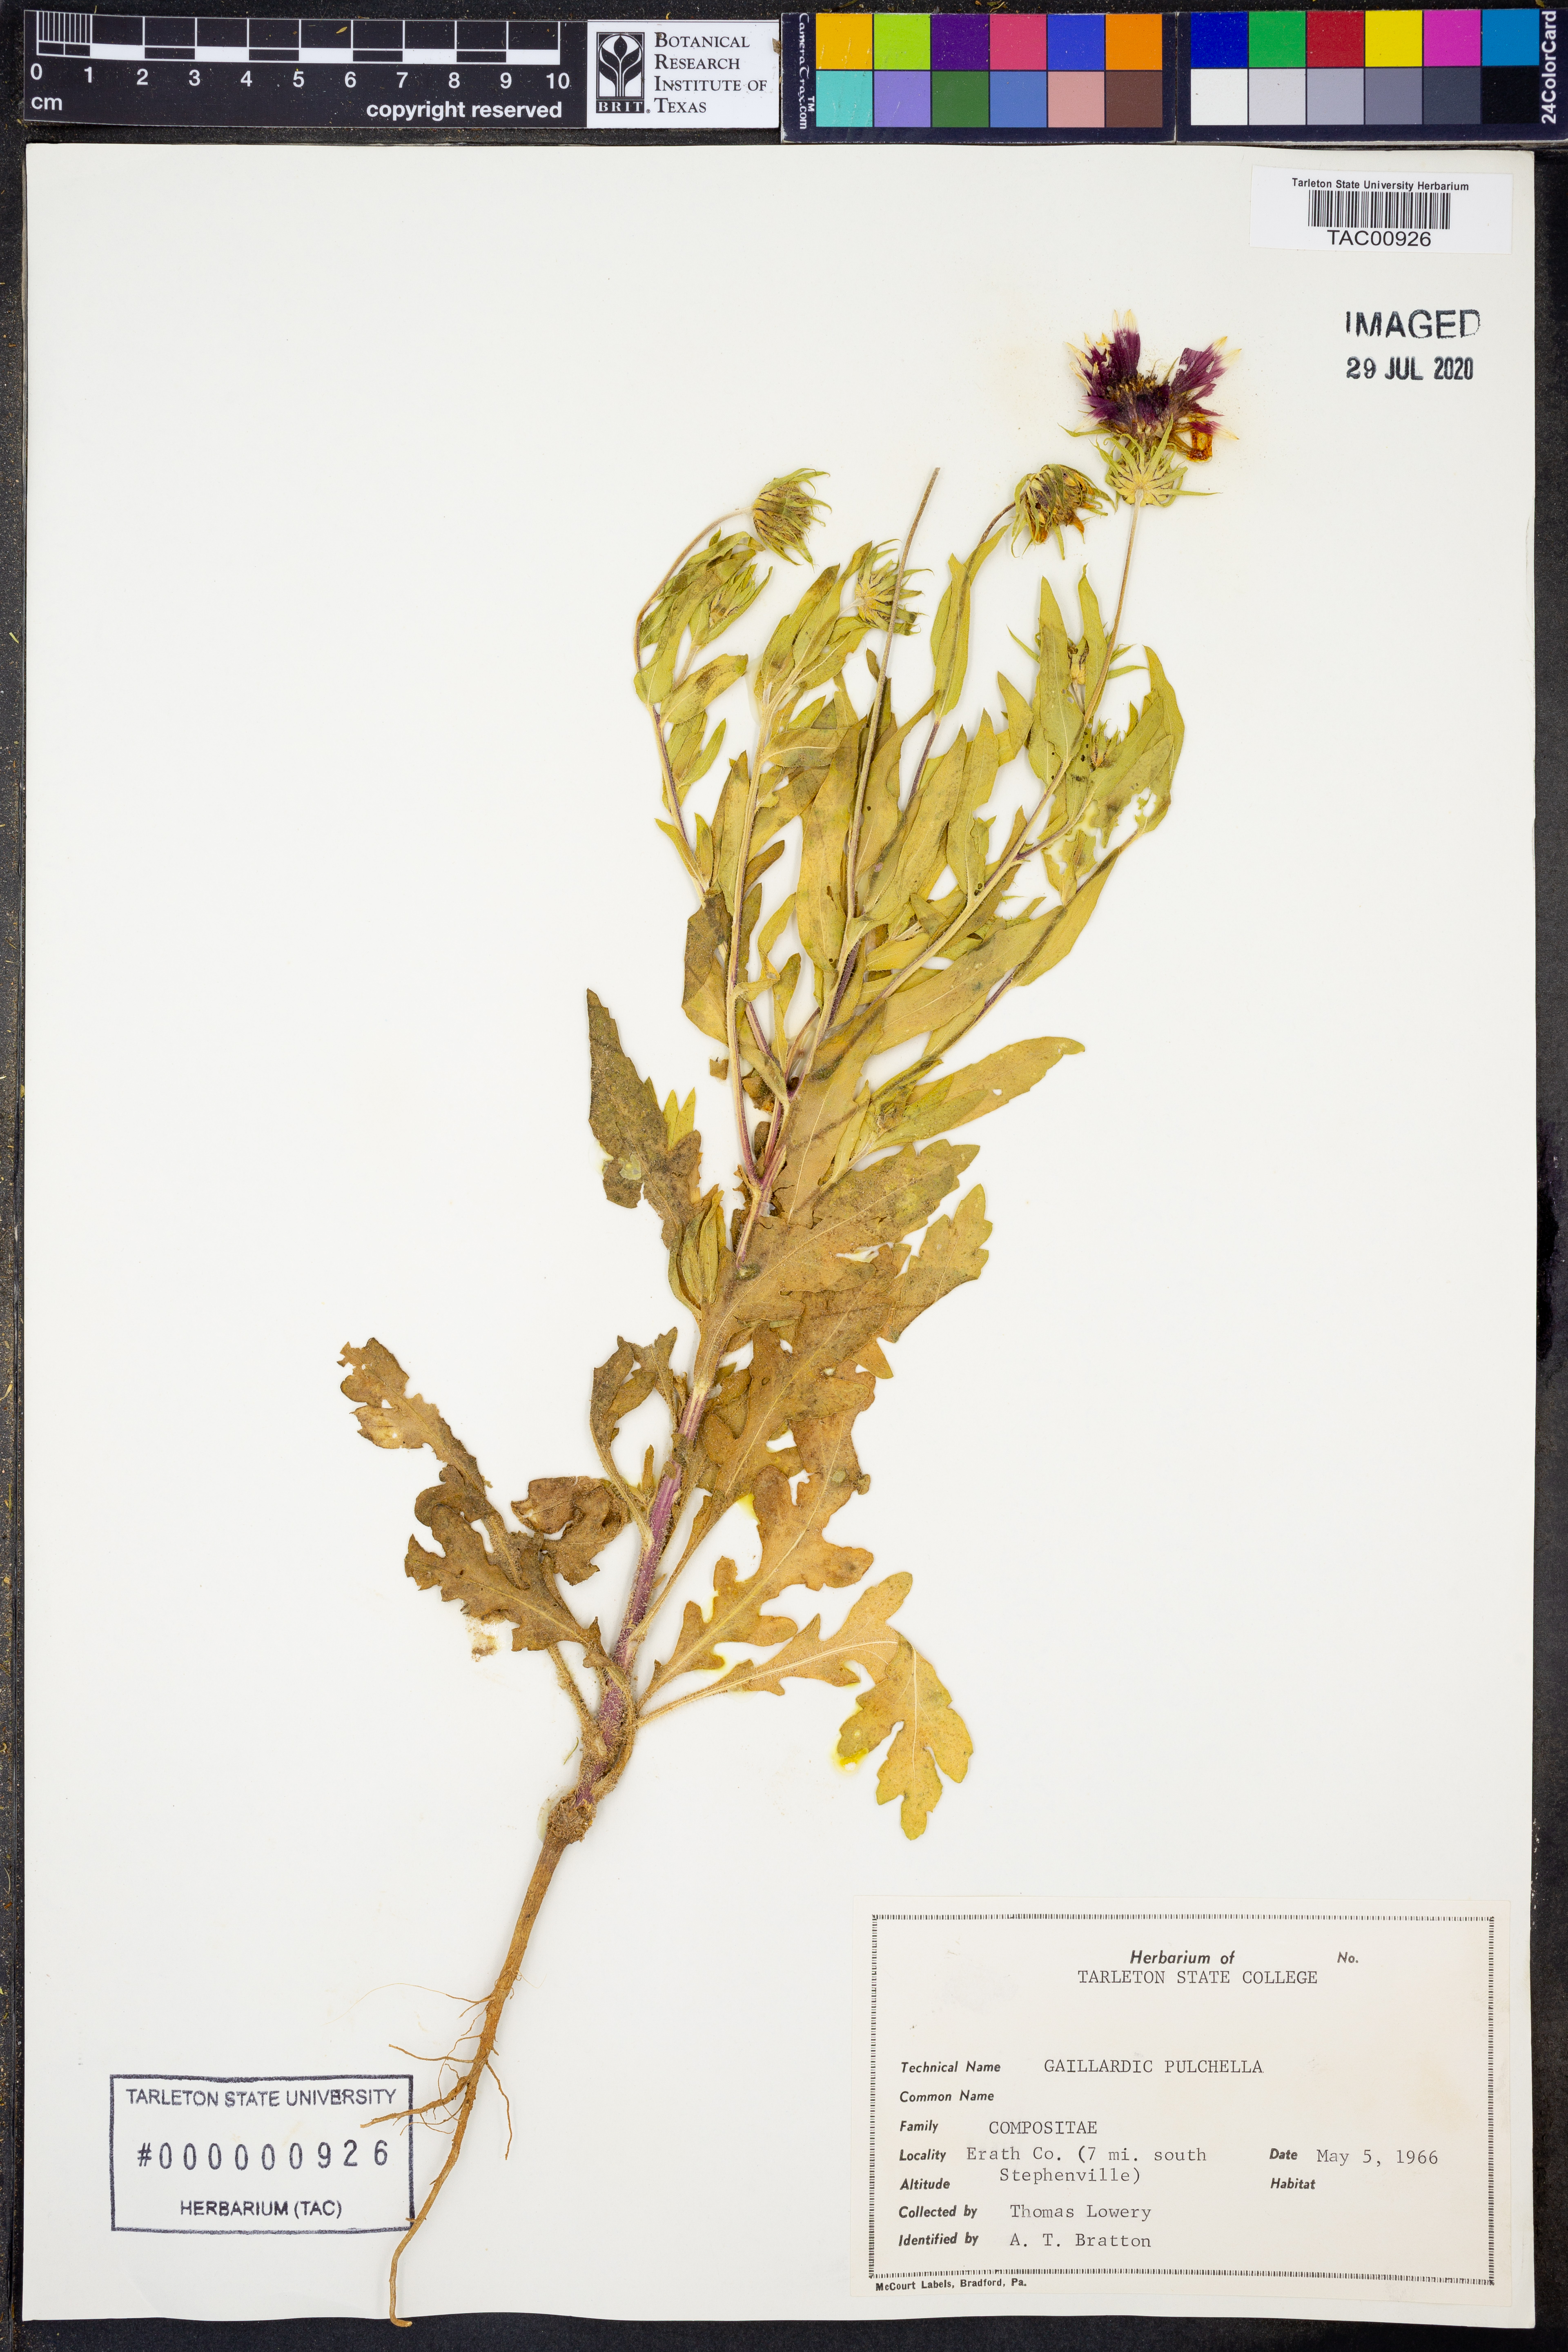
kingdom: Plantae
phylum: Tracheophyta
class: Magnoliopsida
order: Asterales
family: Asteraceae
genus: Gaillardia
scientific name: Gaillardia pulchella
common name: Firewheel
